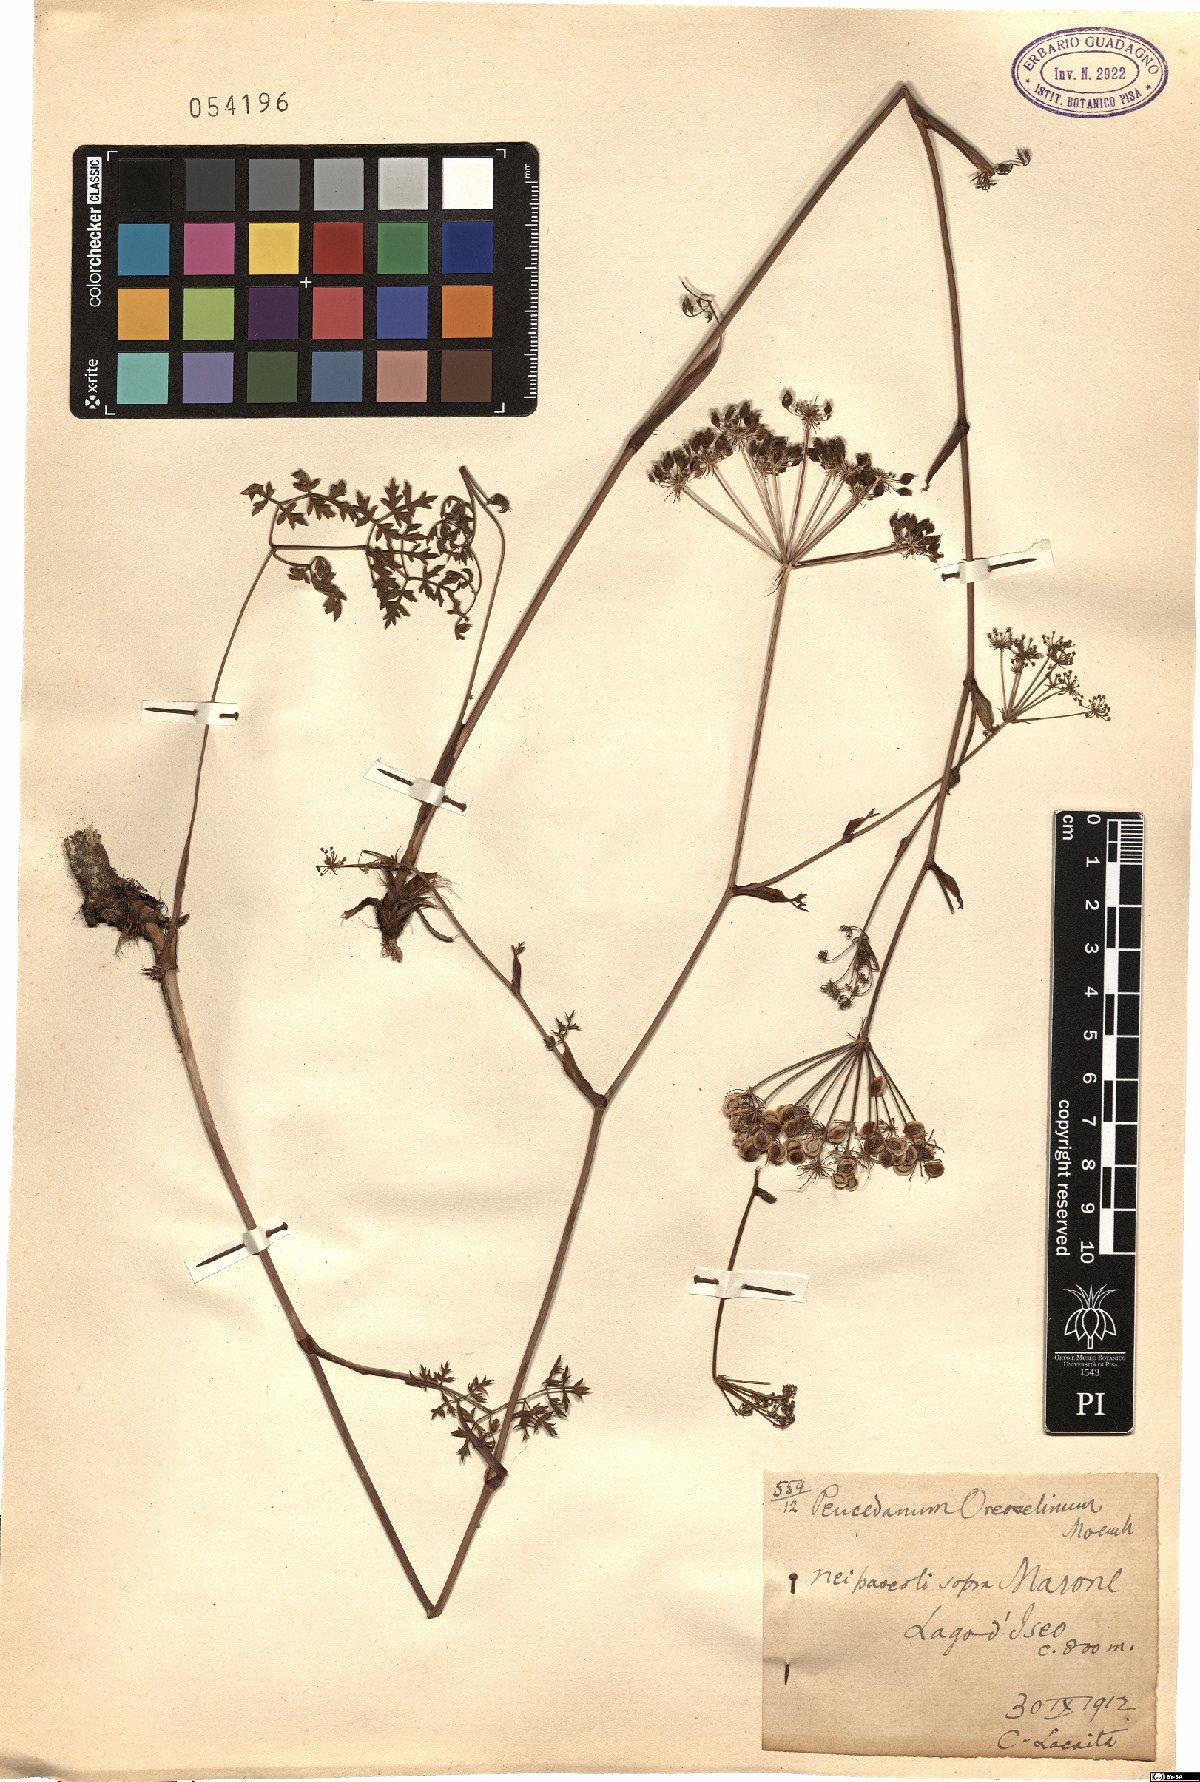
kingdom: Plantae
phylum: Tracheophyta
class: Magnoliopsida
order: Apiales
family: Apiaceae
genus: Oreoselinum
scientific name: Oreoselinum nigrum
